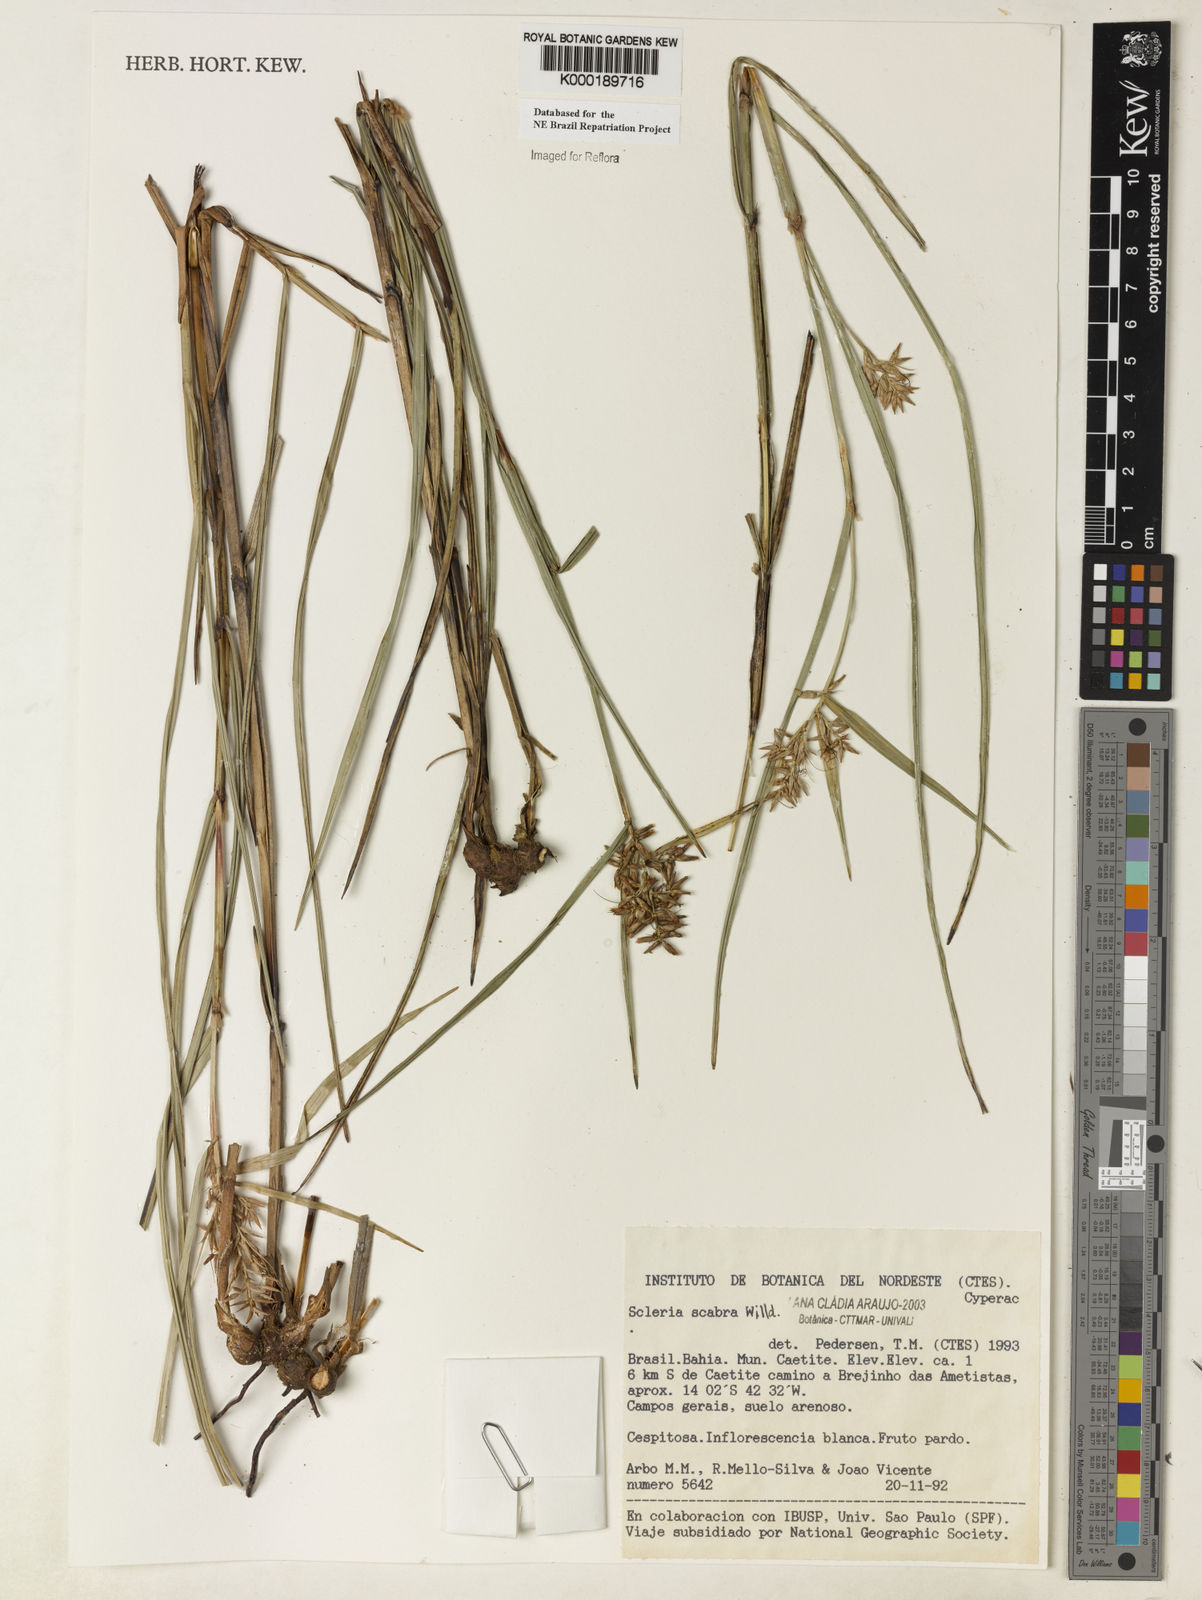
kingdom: Plantae
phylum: Tracheophyta
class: Liliopsida
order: Poales
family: Cyperaceae
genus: Scleria
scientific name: Scleria scabra
